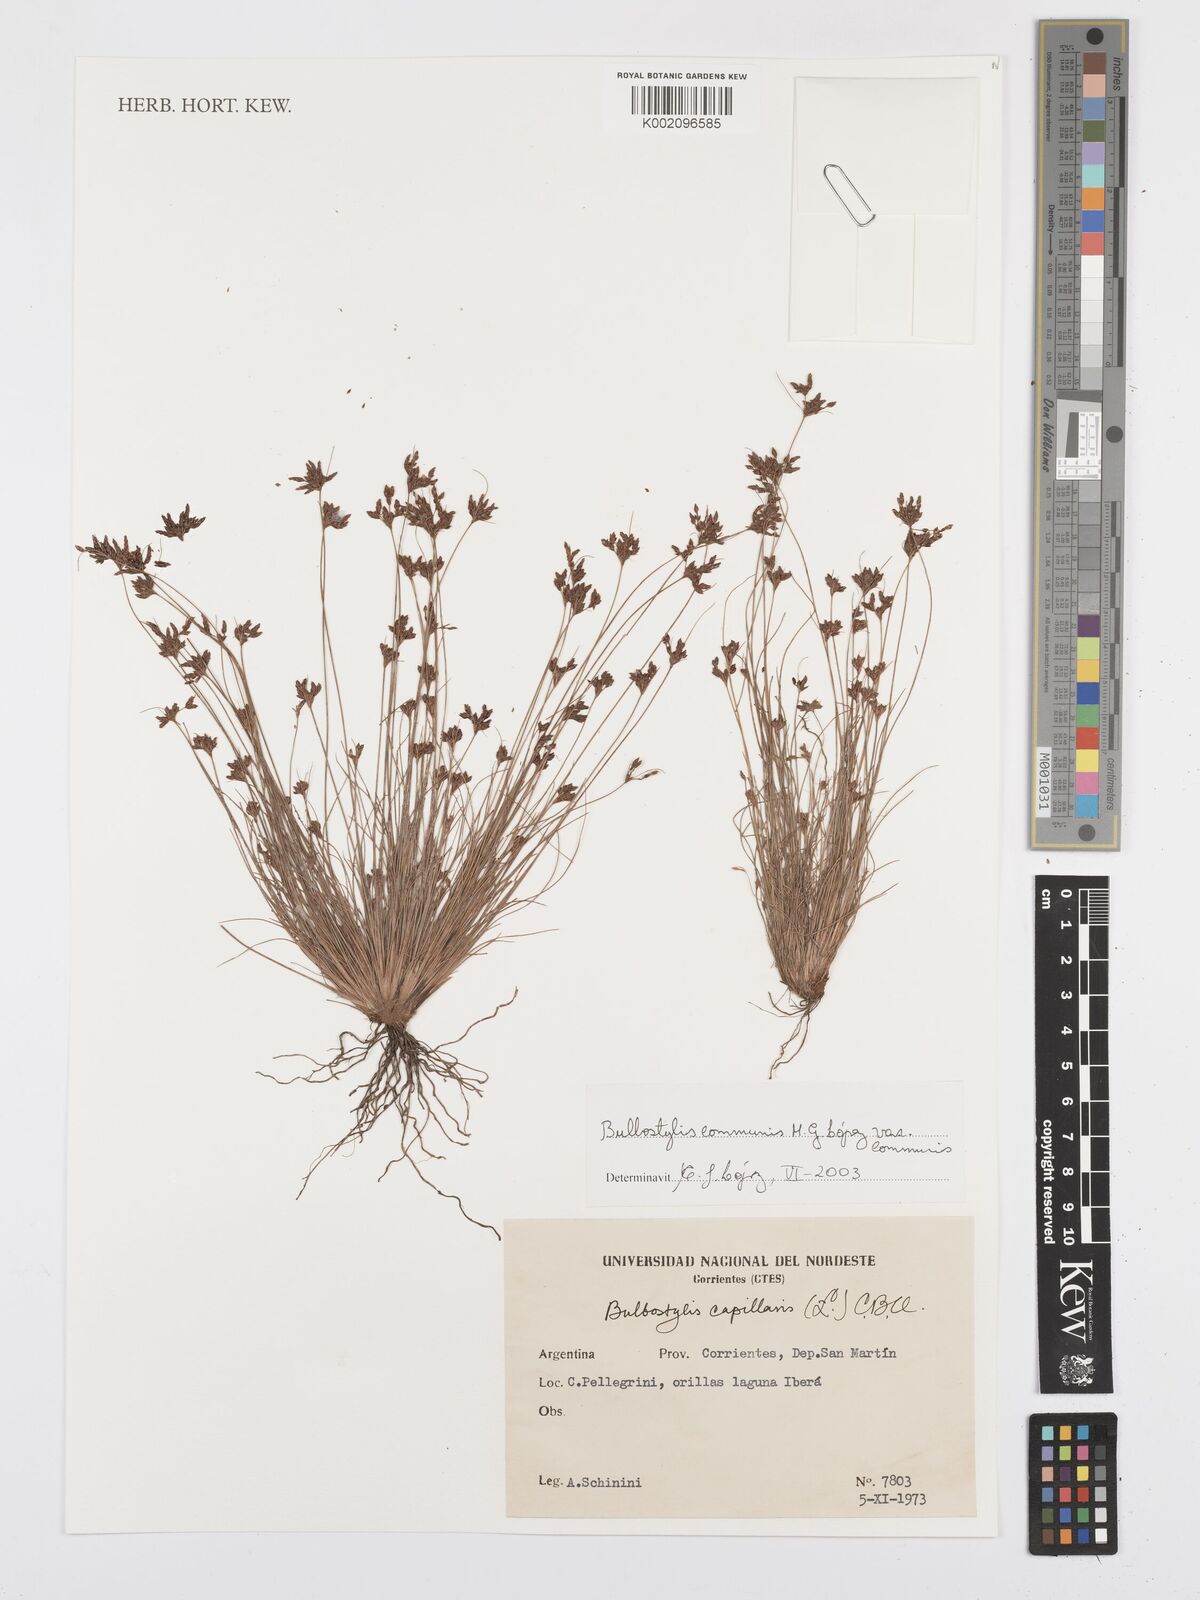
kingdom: Plantae
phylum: Tracheophyta
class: Liliopsida
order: Poales
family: Cyperaceae
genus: Bulbostylis
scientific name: Bulbostylis communis
